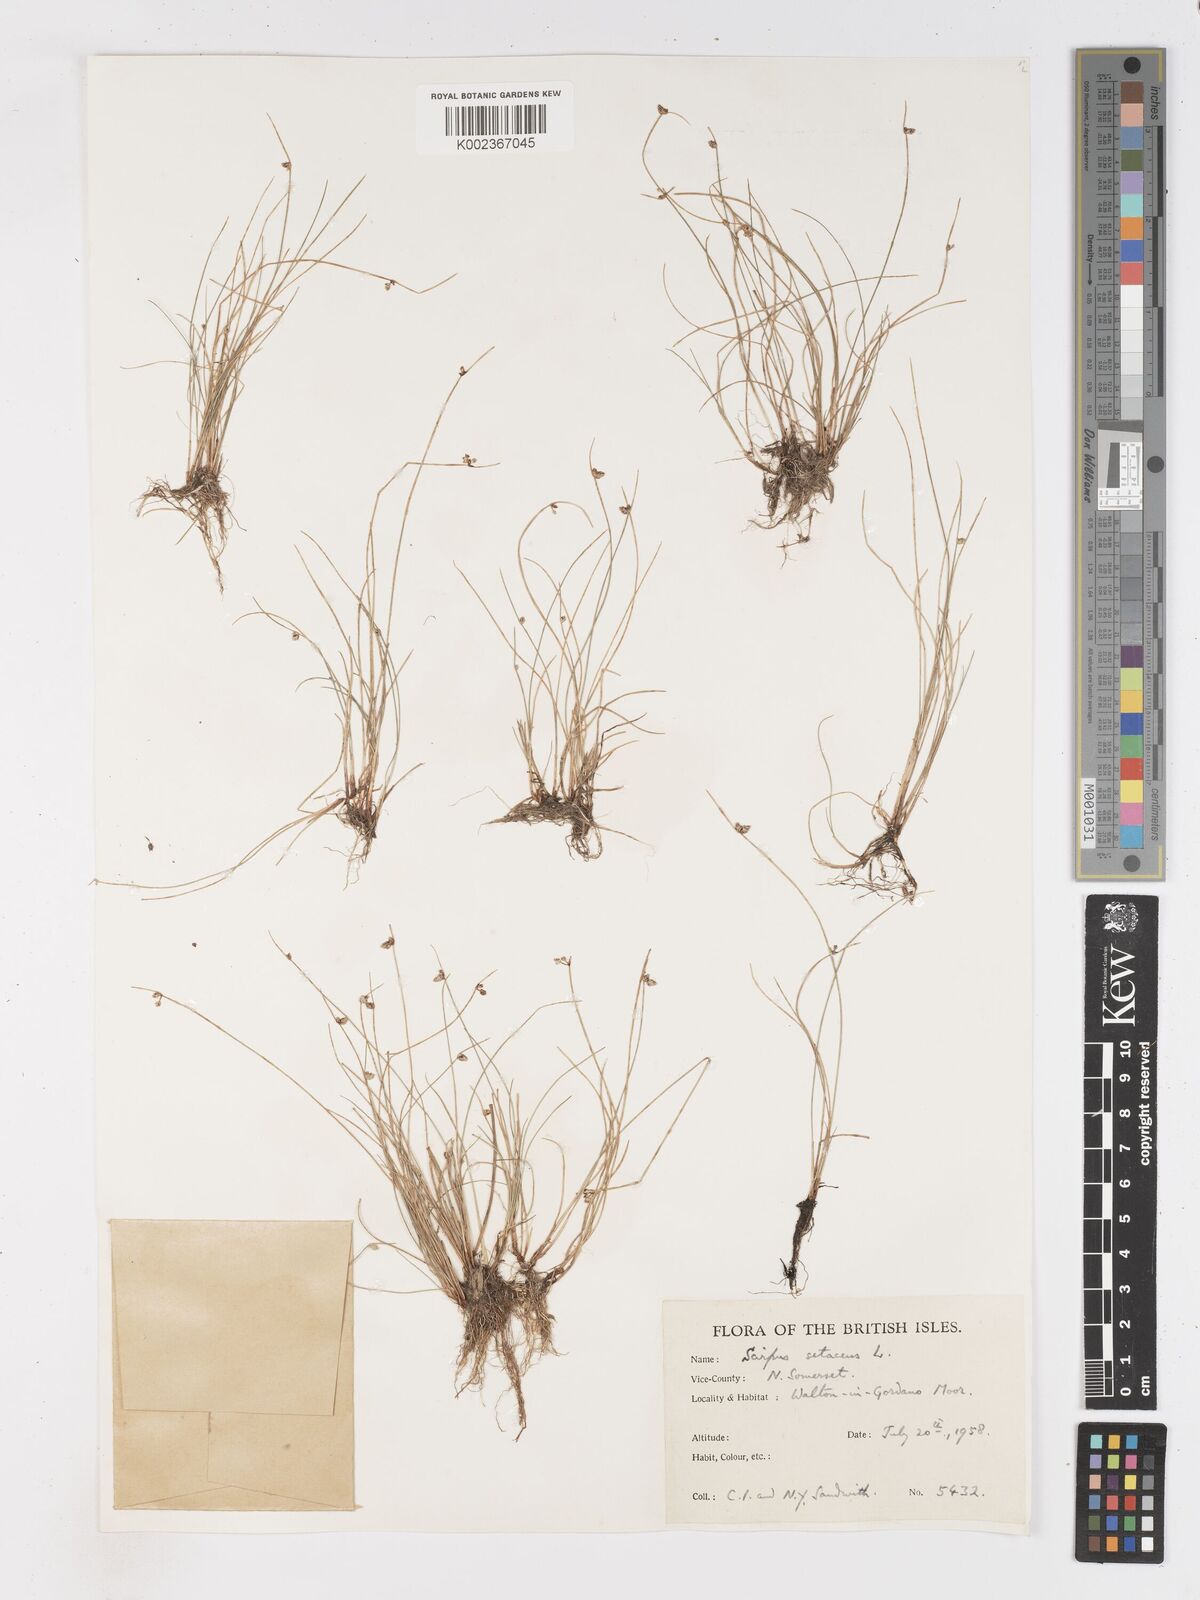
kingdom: Plantae
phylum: Tracheophyta
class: Liliopsida
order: Poales
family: Cyperaceae
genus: Isolepis
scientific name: Isolepis setacea
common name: Bristle club-rush
